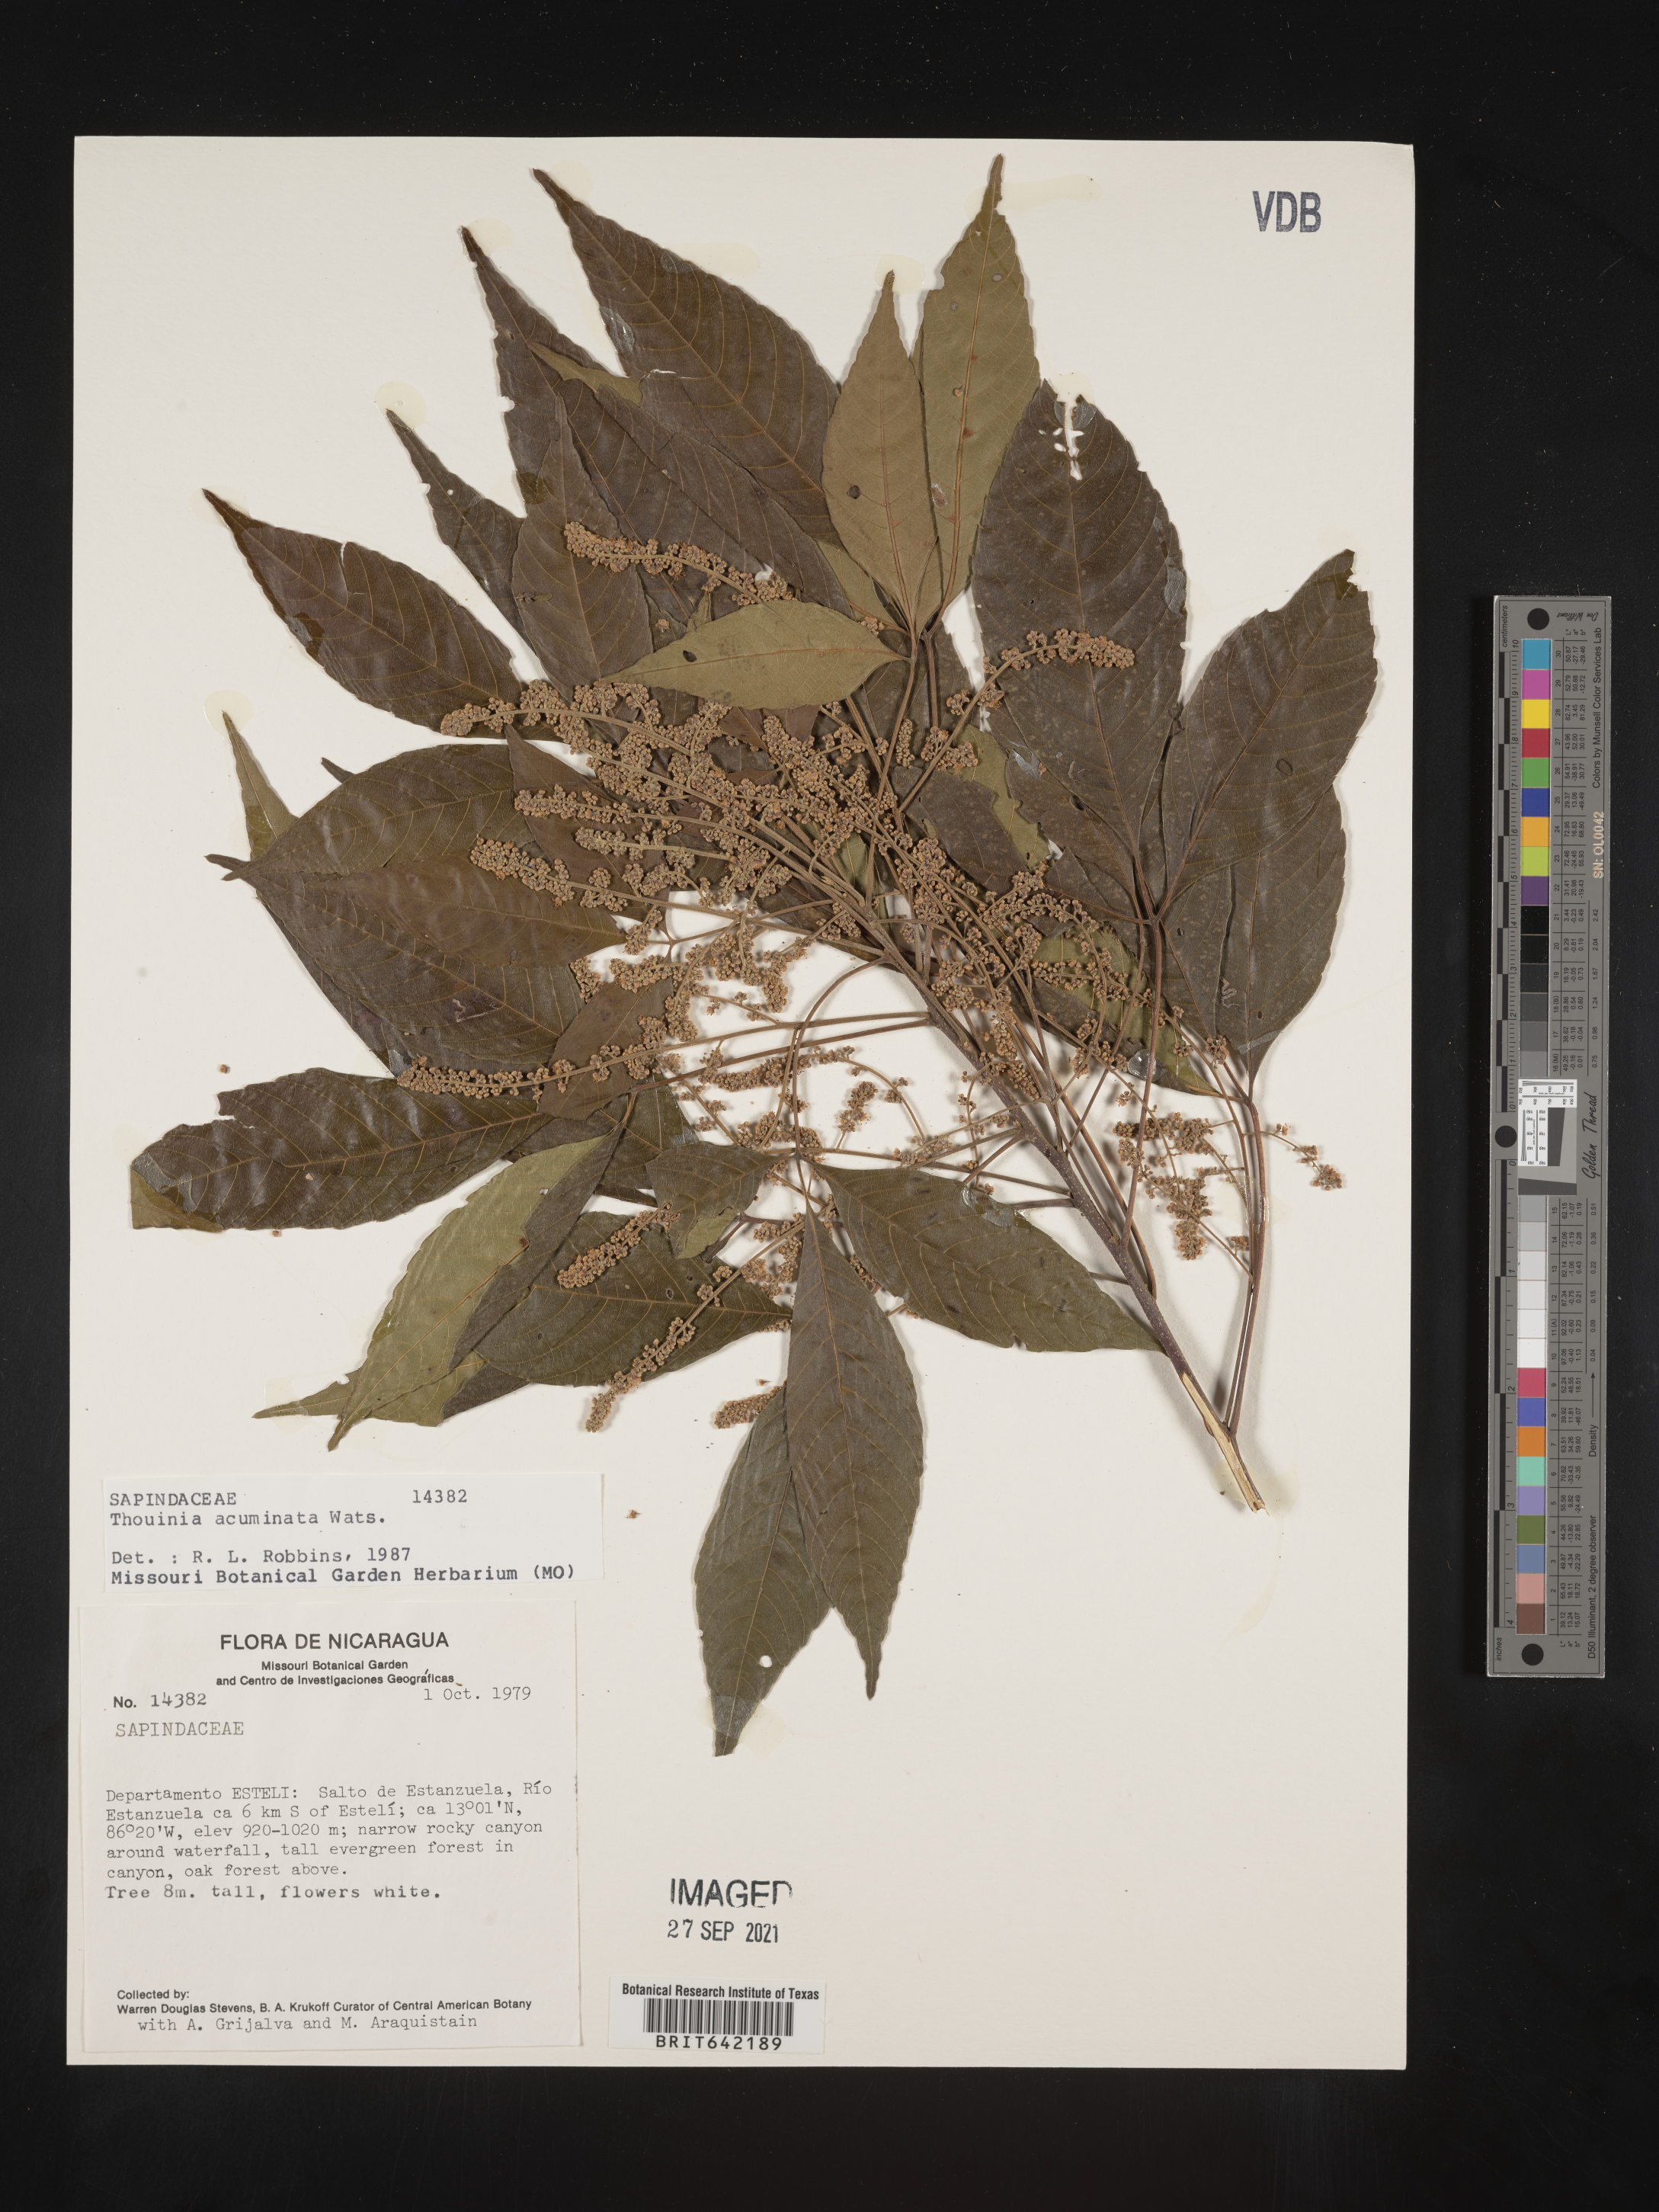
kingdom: Plantae
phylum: Tracheophyta
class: Magnoliopsida
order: Sapindales
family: Sapindaceae
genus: Thouinia
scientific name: Thouinia
